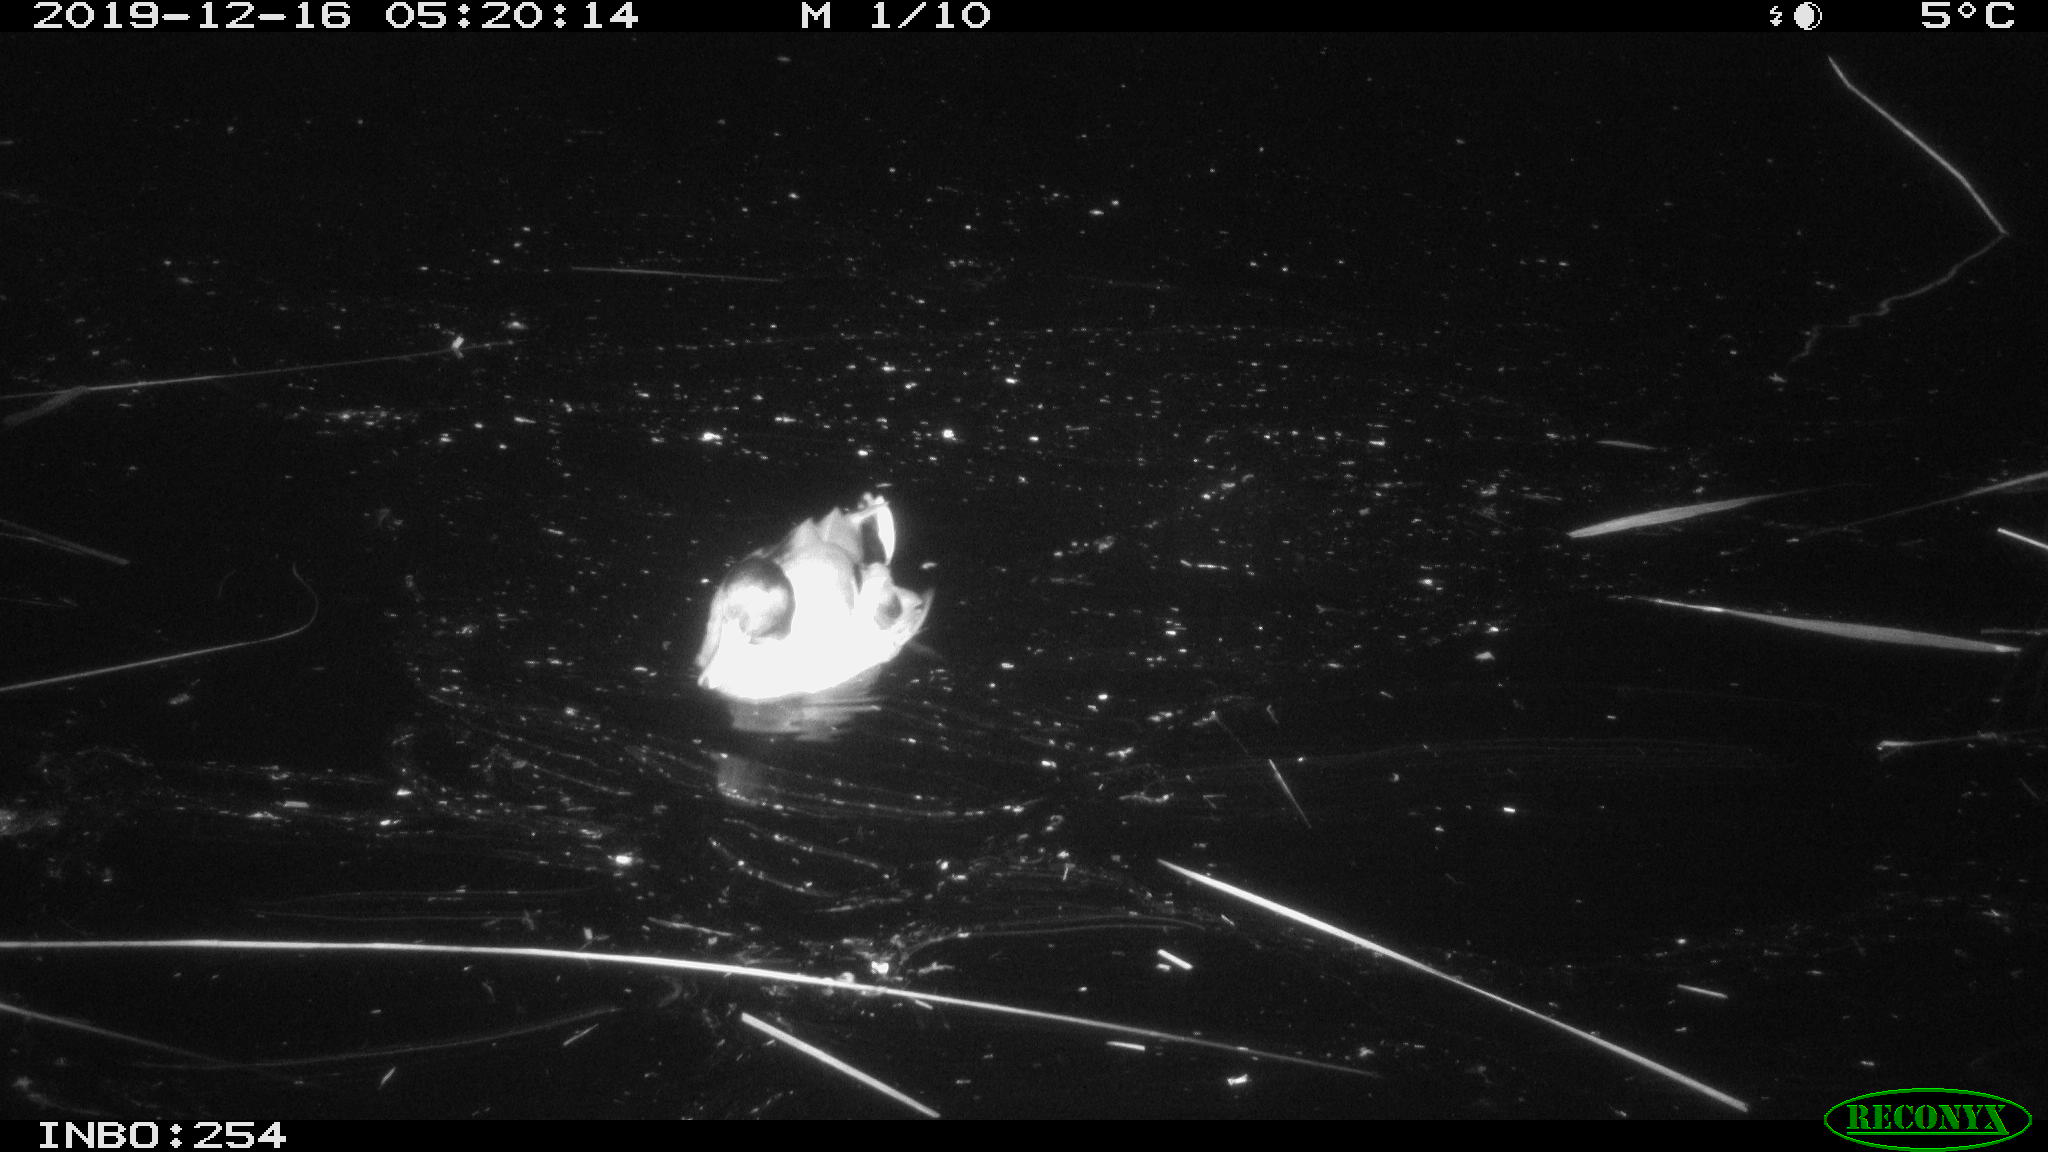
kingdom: Animalia
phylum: Chordata
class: Aves
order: Anseriformes
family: Anatidae
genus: Anas
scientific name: Anas platyrhynchos
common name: Mallard
